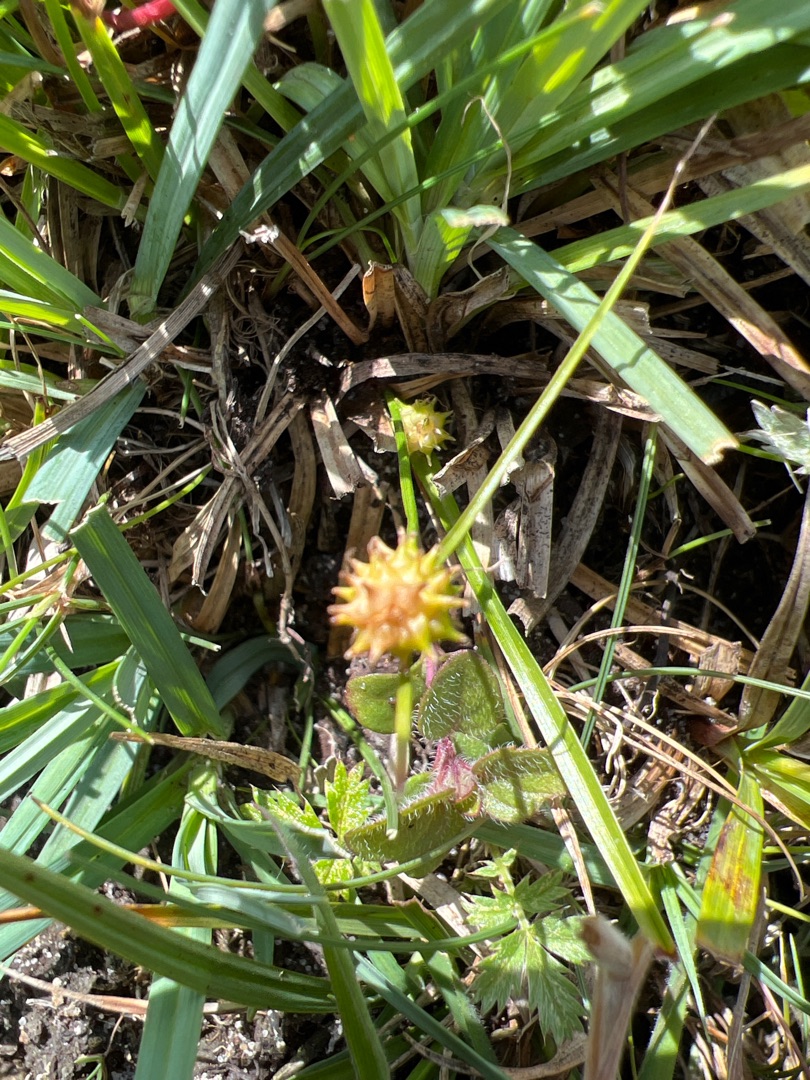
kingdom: Plantae
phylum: Tracheophyta
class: Liliopsida
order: Poales
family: Cyperaceae
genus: Carex
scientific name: Carex demissa
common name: Grøn star
